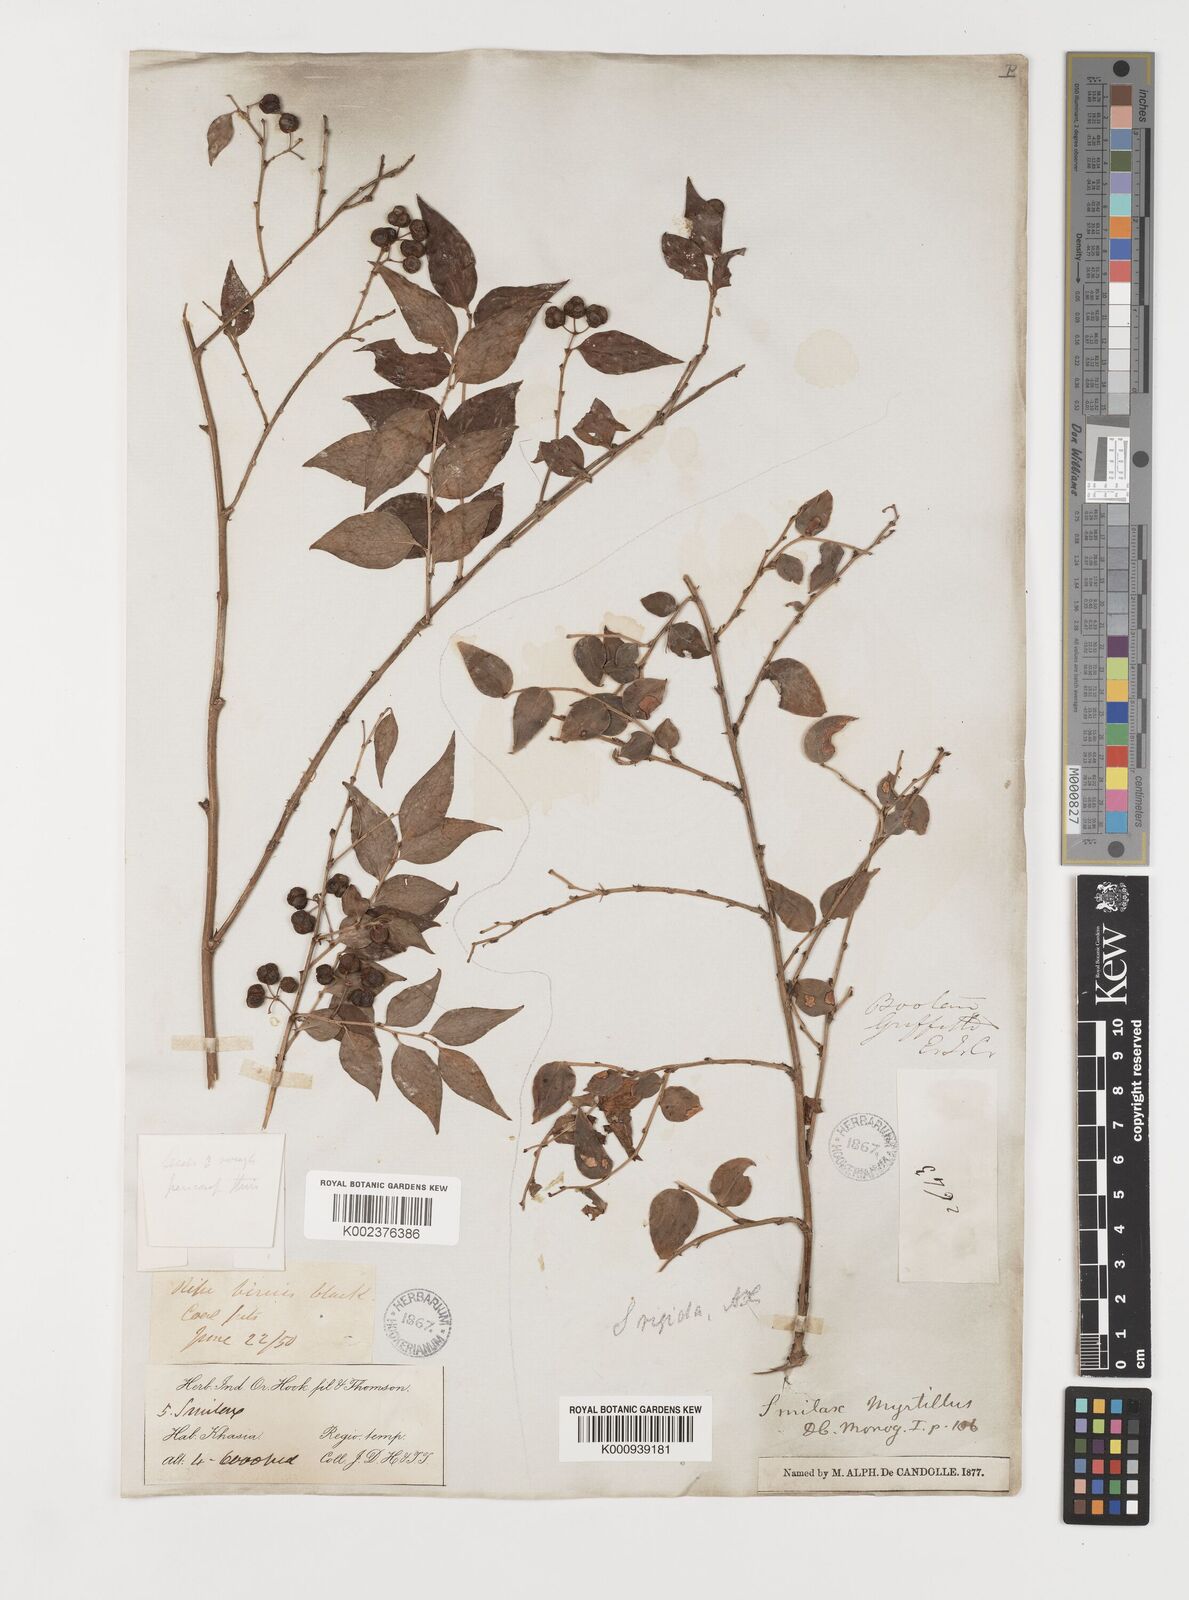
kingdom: Plantae
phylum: Tracheophyta
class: Liliopsida
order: Liliales
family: Smilacaceae
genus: Smilax
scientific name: Smilax myrtillus
